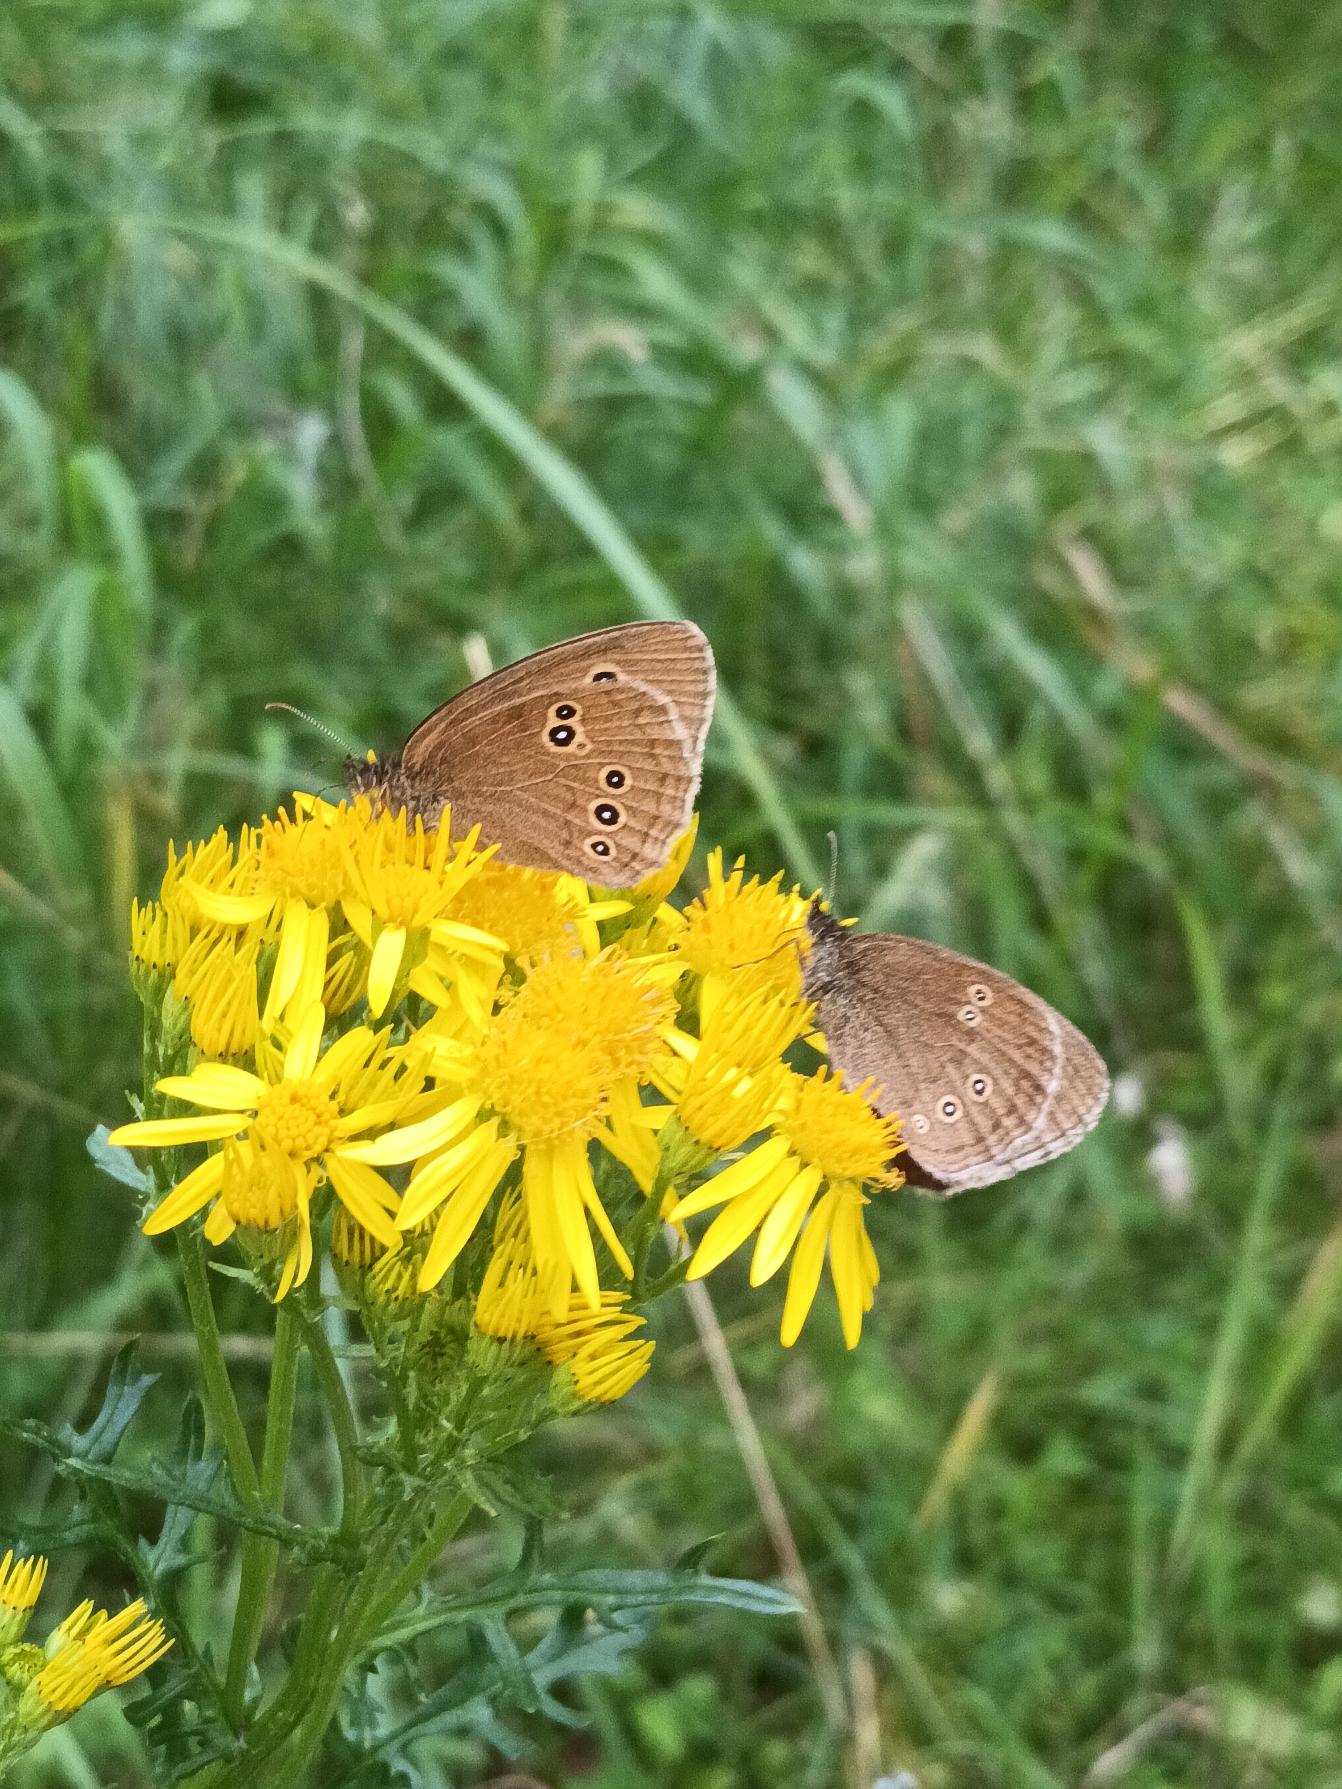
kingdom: Animalia
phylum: Arthropoda
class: Insecta
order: Lepidoptera
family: Nymphalidae
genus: Aphantopus
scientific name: Aphantopus hyperantus
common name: Engrandøje
